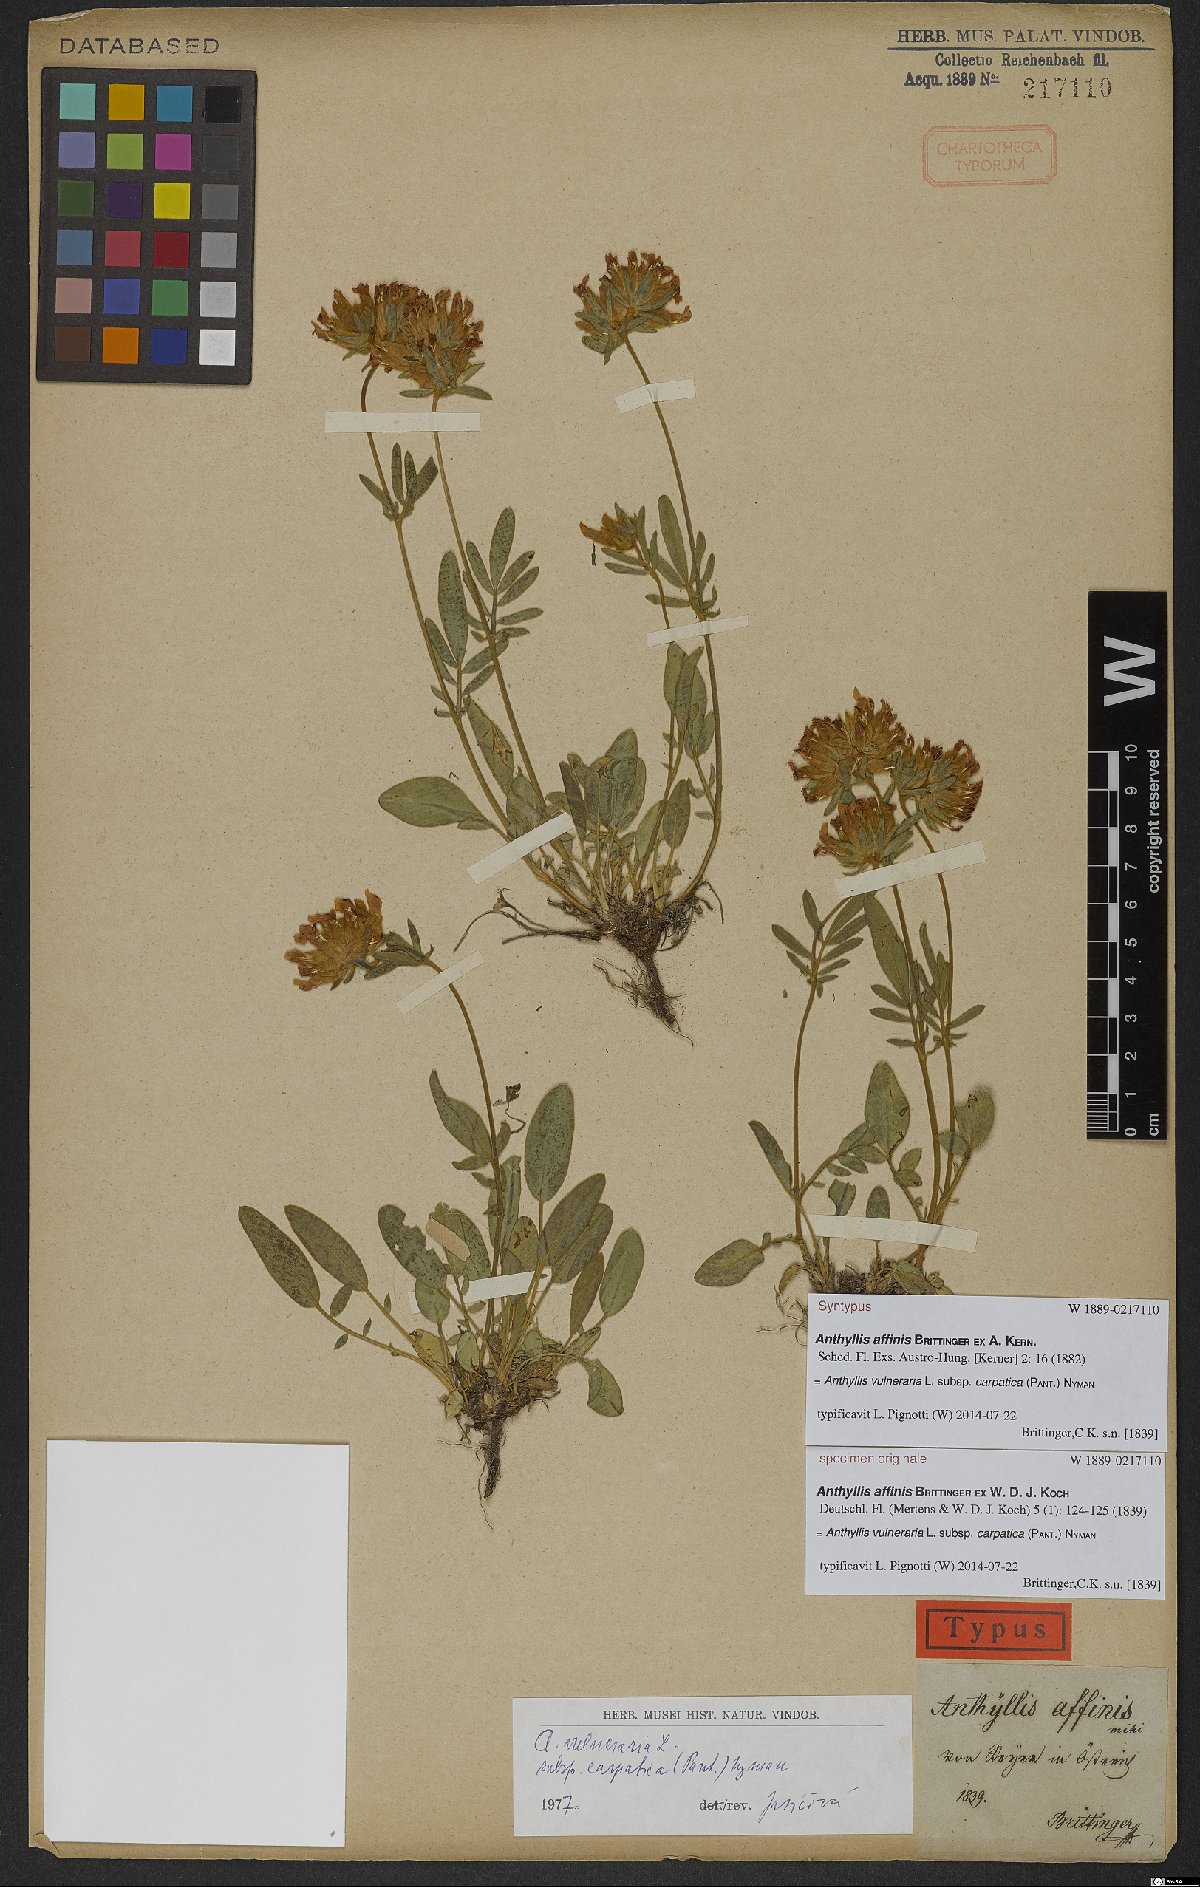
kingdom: Plantae
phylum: Tracheophyta
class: Magnoliopsida
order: Fabales
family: Fabaceae
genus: Anthyllis
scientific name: Anthyllis vulneraria
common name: Kidney vetch
